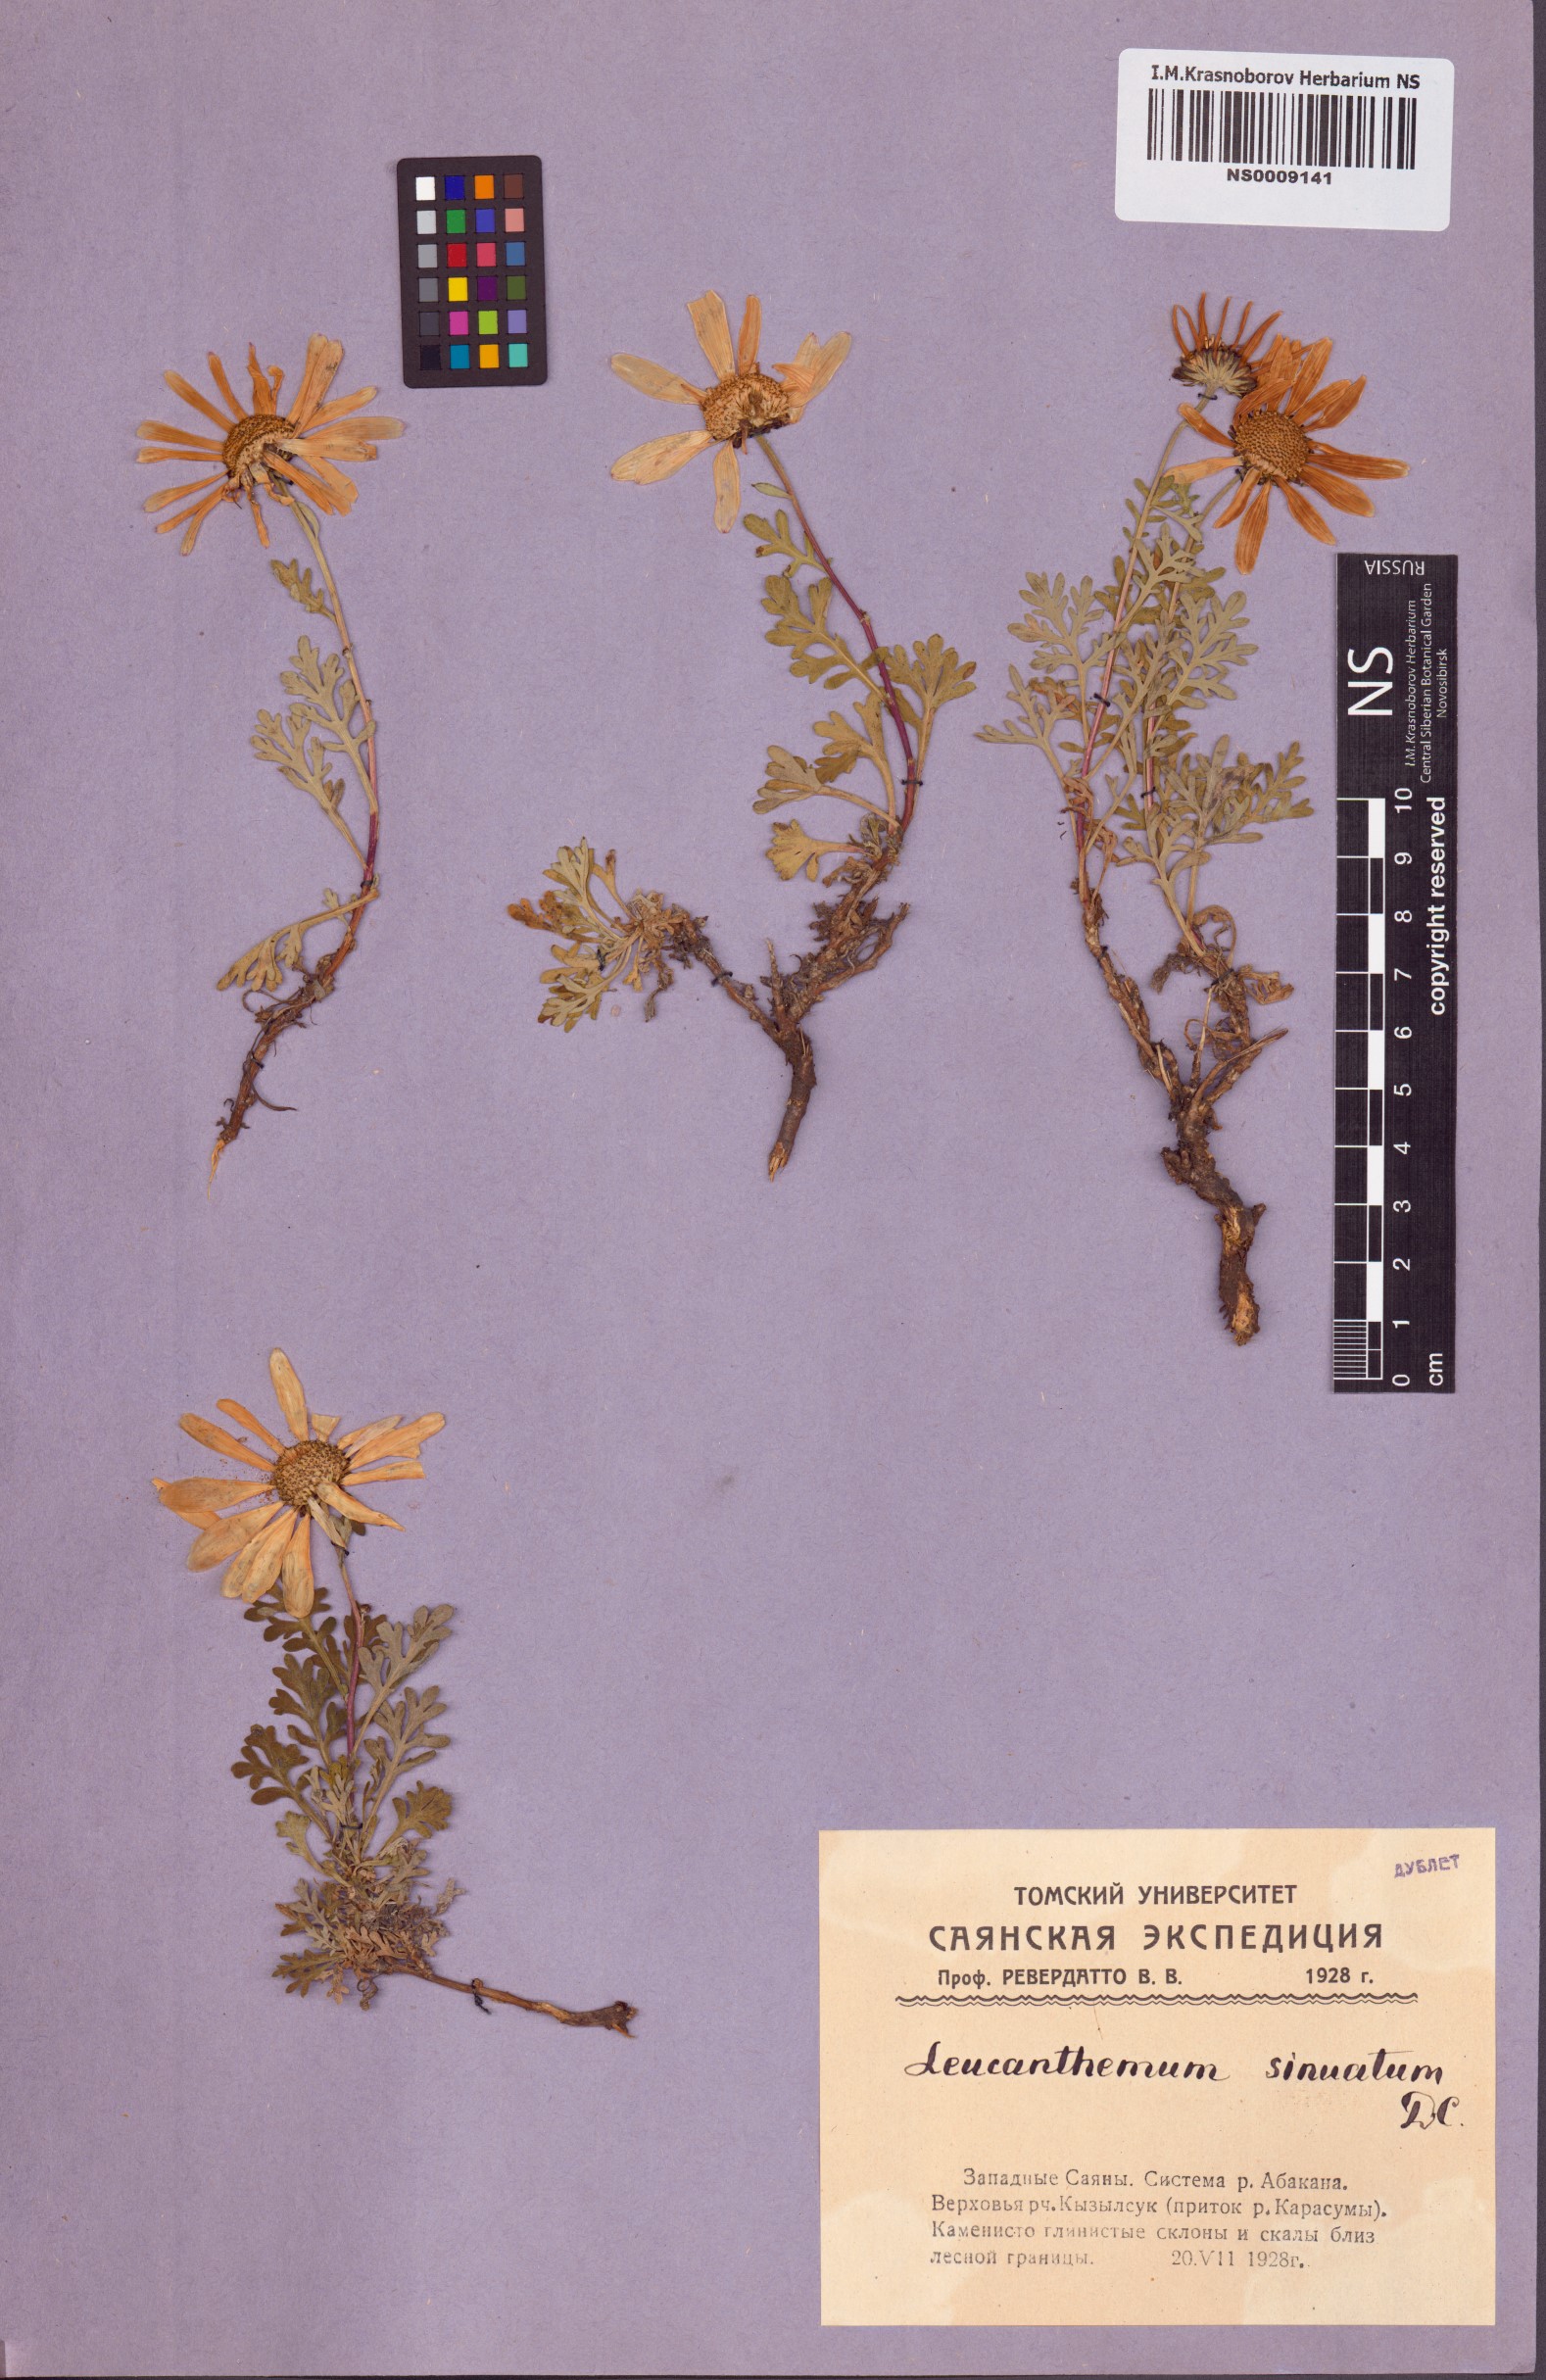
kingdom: Plantae
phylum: Tracheophyta
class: Magnoliopsida
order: Asterales
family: Asteraceae
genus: Chrysanthemum
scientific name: Chrysanthemum sinuatum
